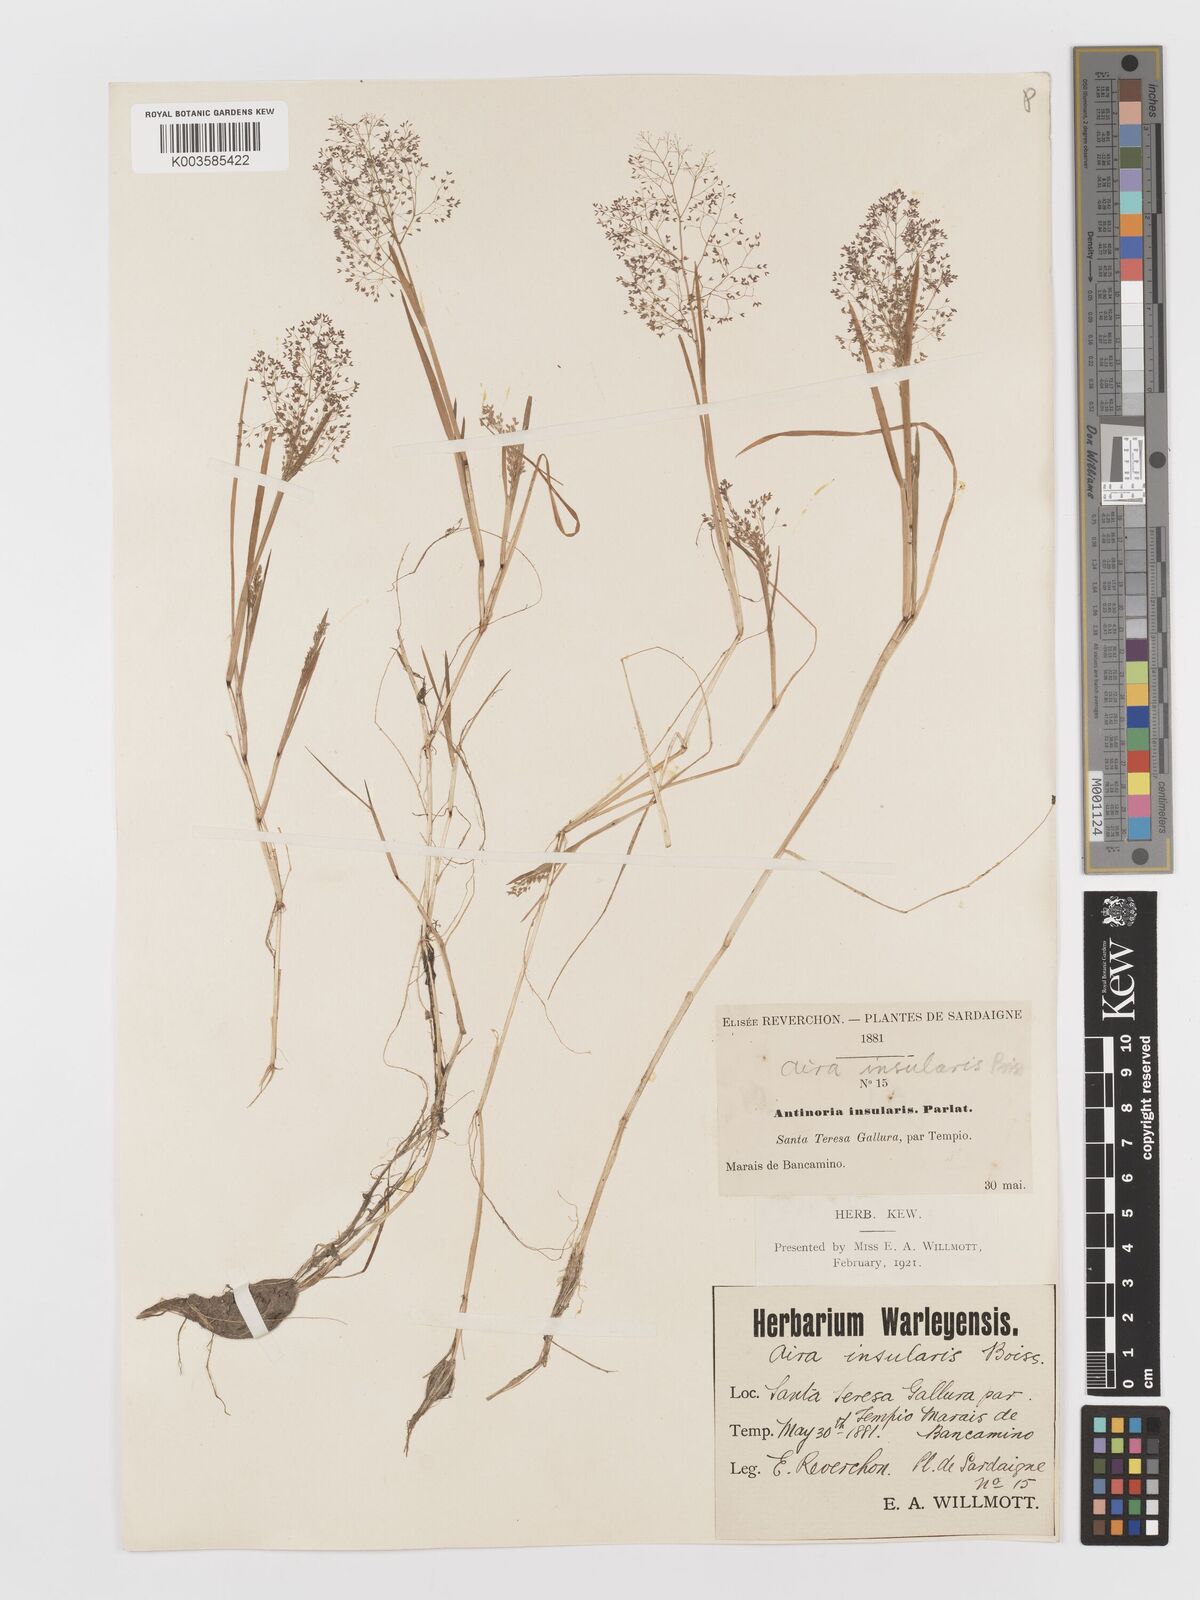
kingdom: Plantae
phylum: Tracheophyta
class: Liliopsida
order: Poales
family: Poaceae
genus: Antinoria
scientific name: Antinoria insularis
